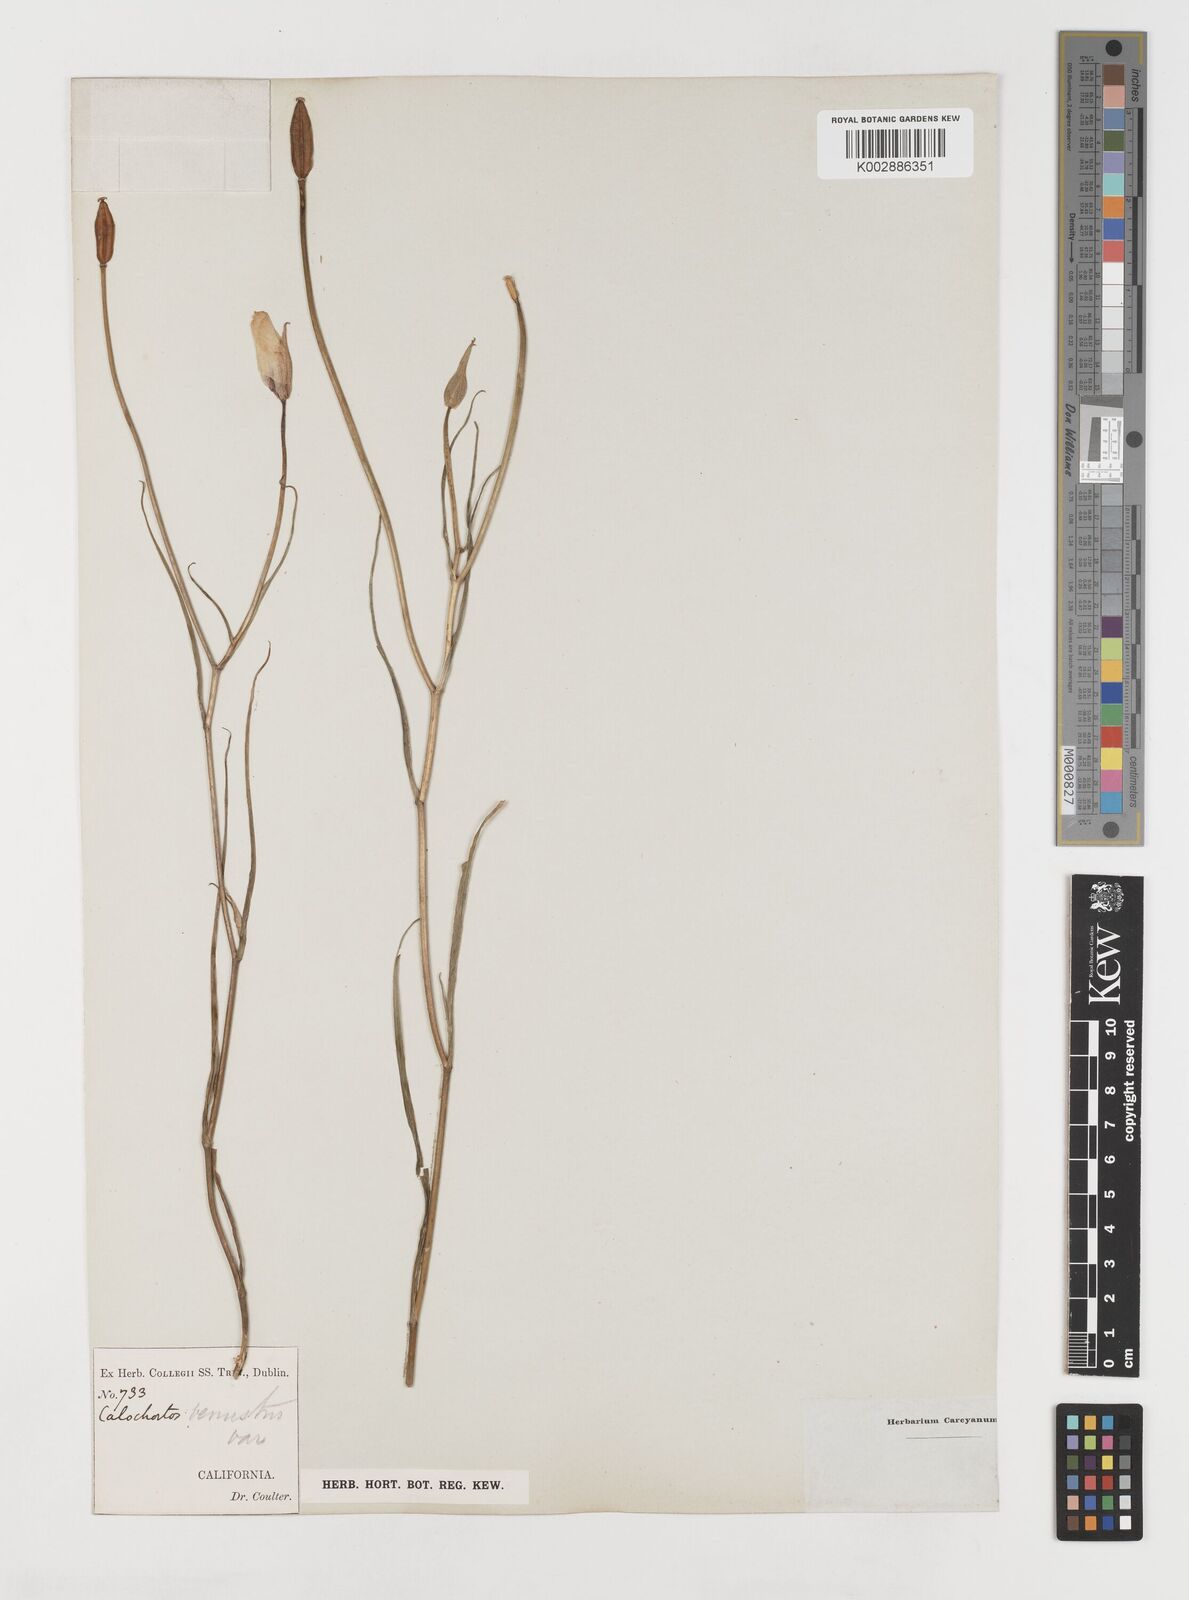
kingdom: Plantae
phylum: Tracheophyta
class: Liliopsida
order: Liliales
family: Liliaceae
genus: Calochortus
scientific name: Calochortus venustus
